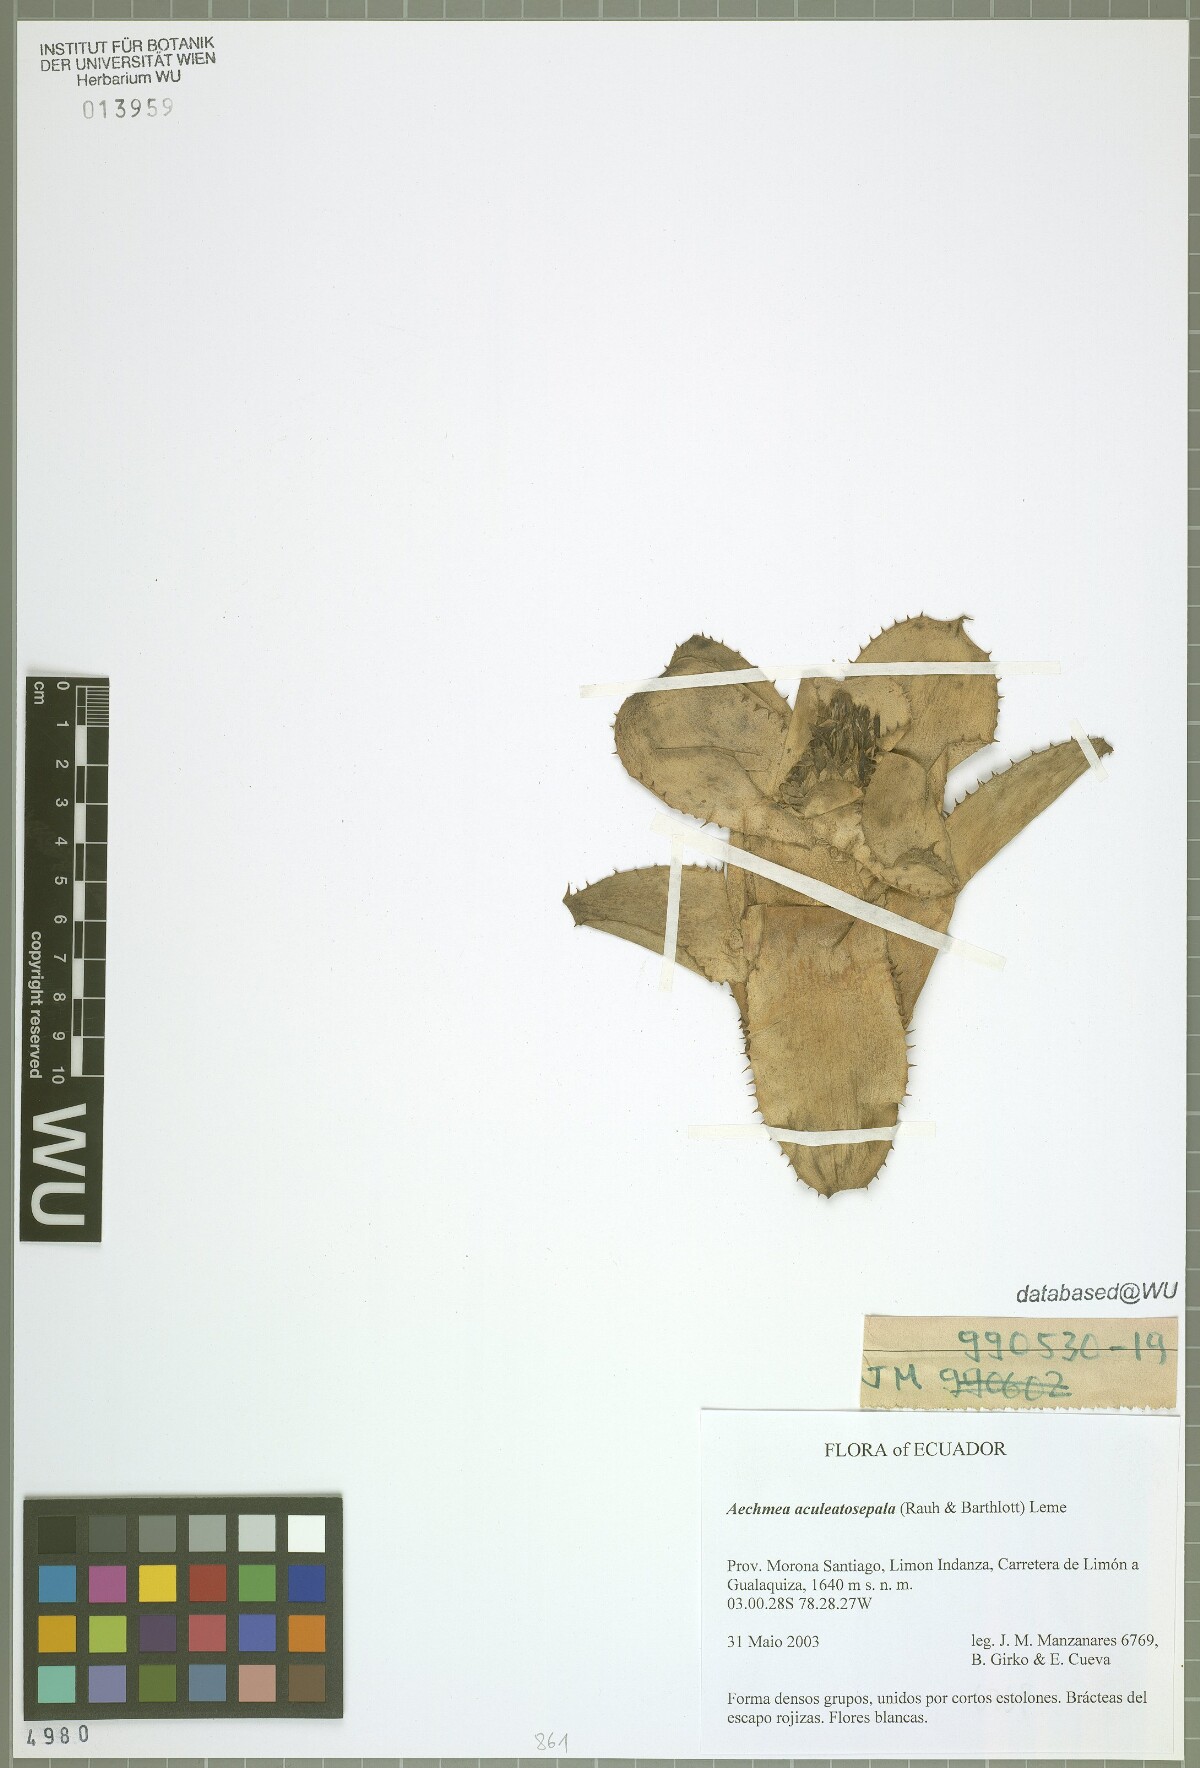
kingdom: Plantae
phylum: Tracheophyta
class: Liliopsida
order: Poales
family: Bromeliaceae
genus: Aechmea
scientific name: Aechmea aculeatosepala
